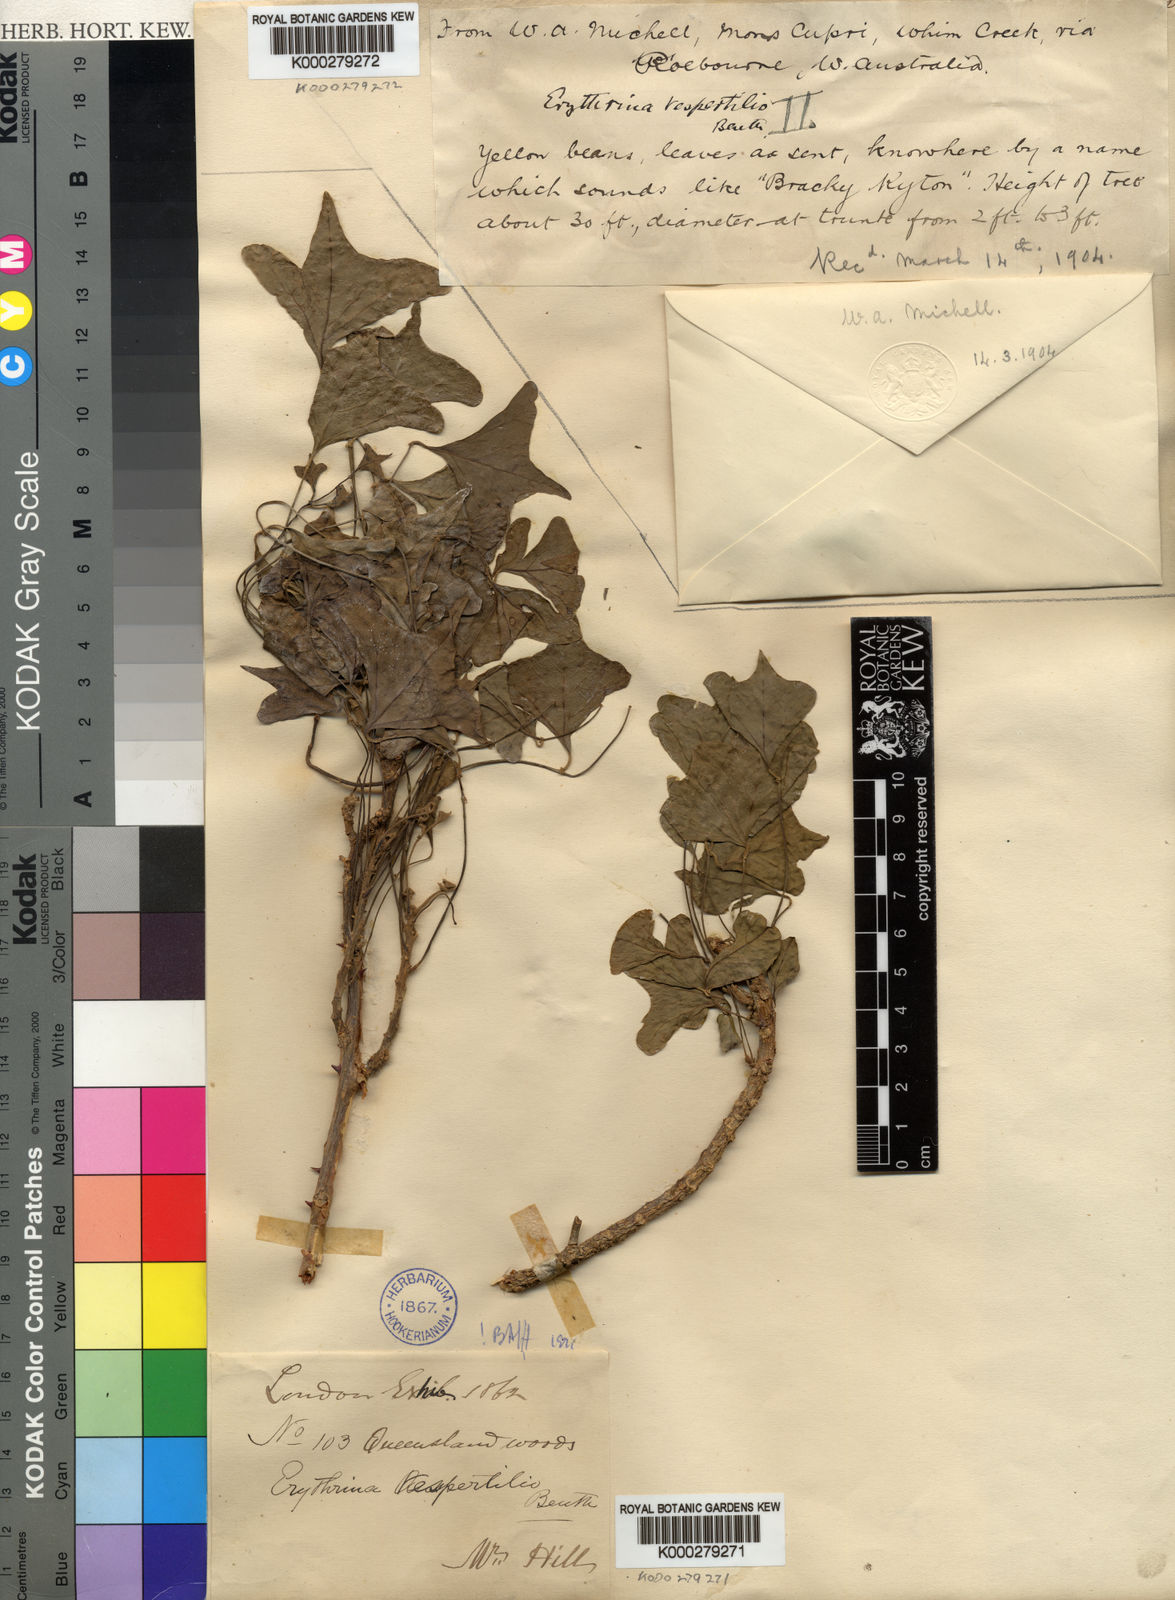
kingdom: Plantae
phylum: Tracheophyta
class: Magnoliopsida
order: Fabales
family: Fabaceae
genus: Erythrina
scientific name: Erythrina vespertilio
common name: Bat-wing coral tree
